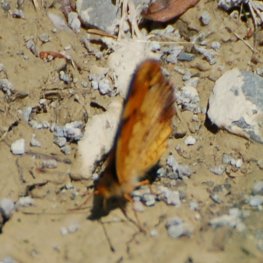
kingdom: Animalia
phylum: Arthropoda
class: Insecta
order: Lepidoptera
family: Nymphalidae
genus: Phyciodes
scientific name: Phyciodes tharos
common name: Northern Crescent
